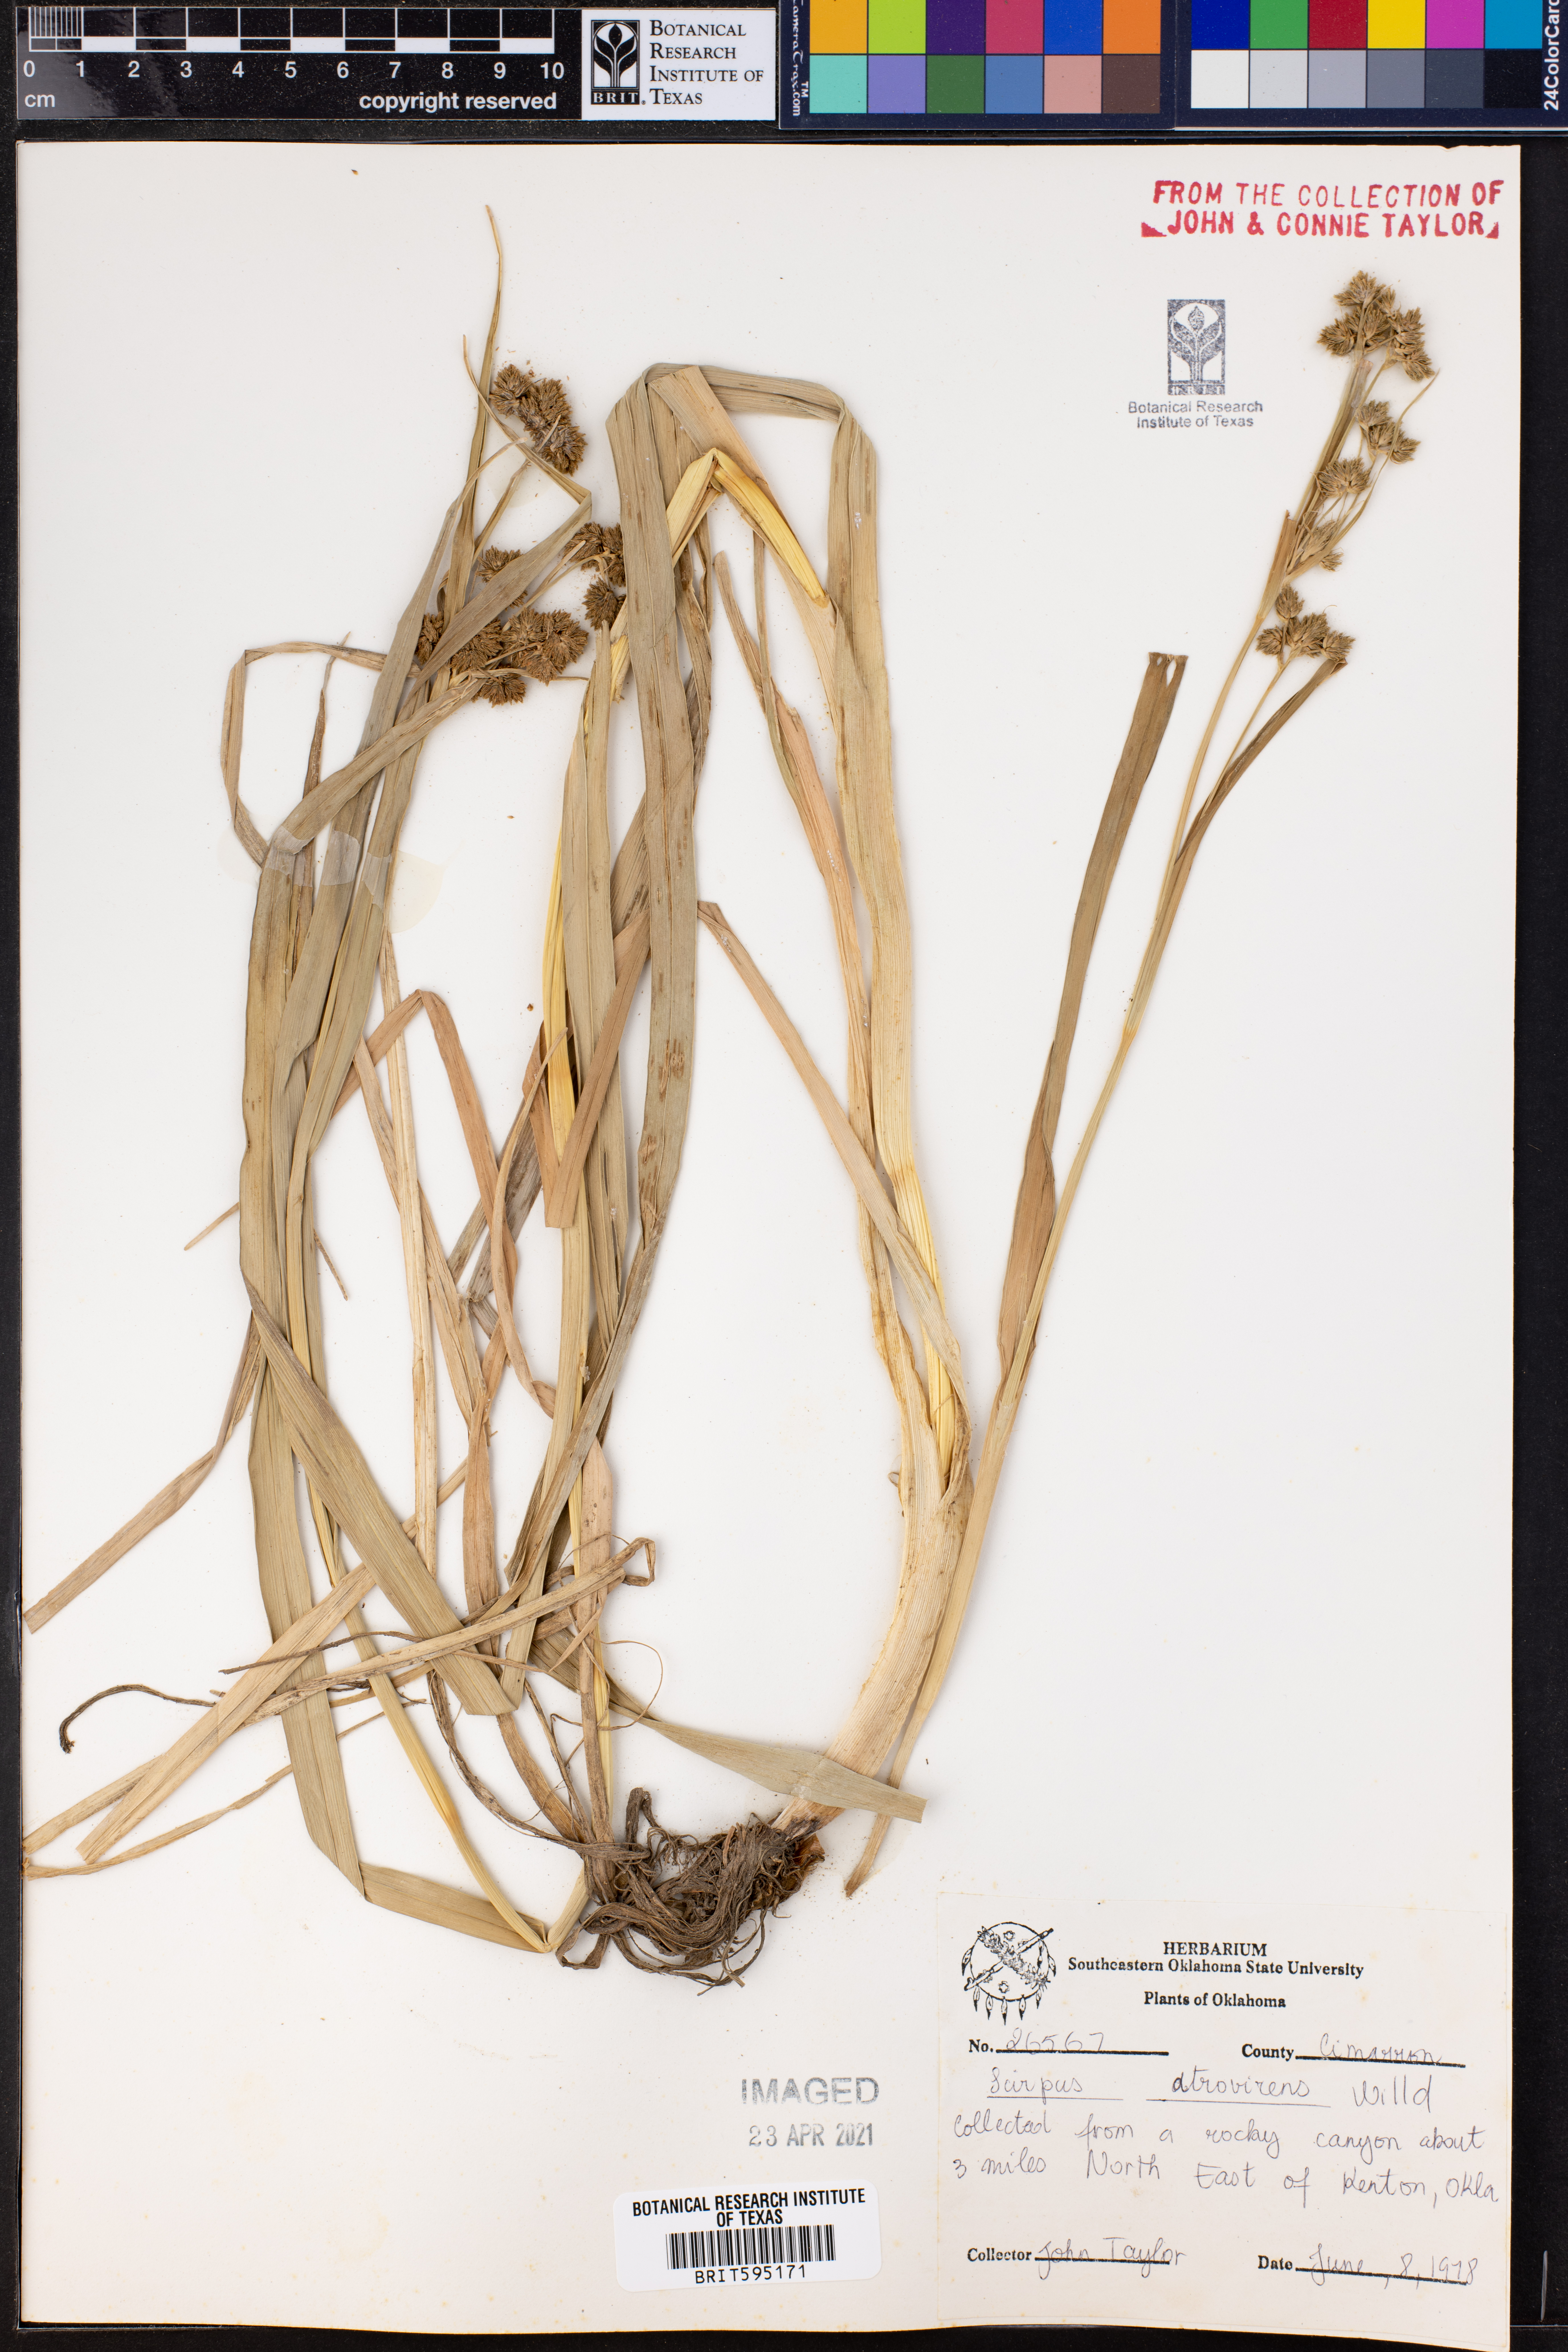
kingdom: Plantae
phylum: Tracheophyta
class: Liliopsida
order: Poales
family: Cyperaceae
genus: Scirpus
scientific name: Scirpus atrovirens
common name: Black bulrush
